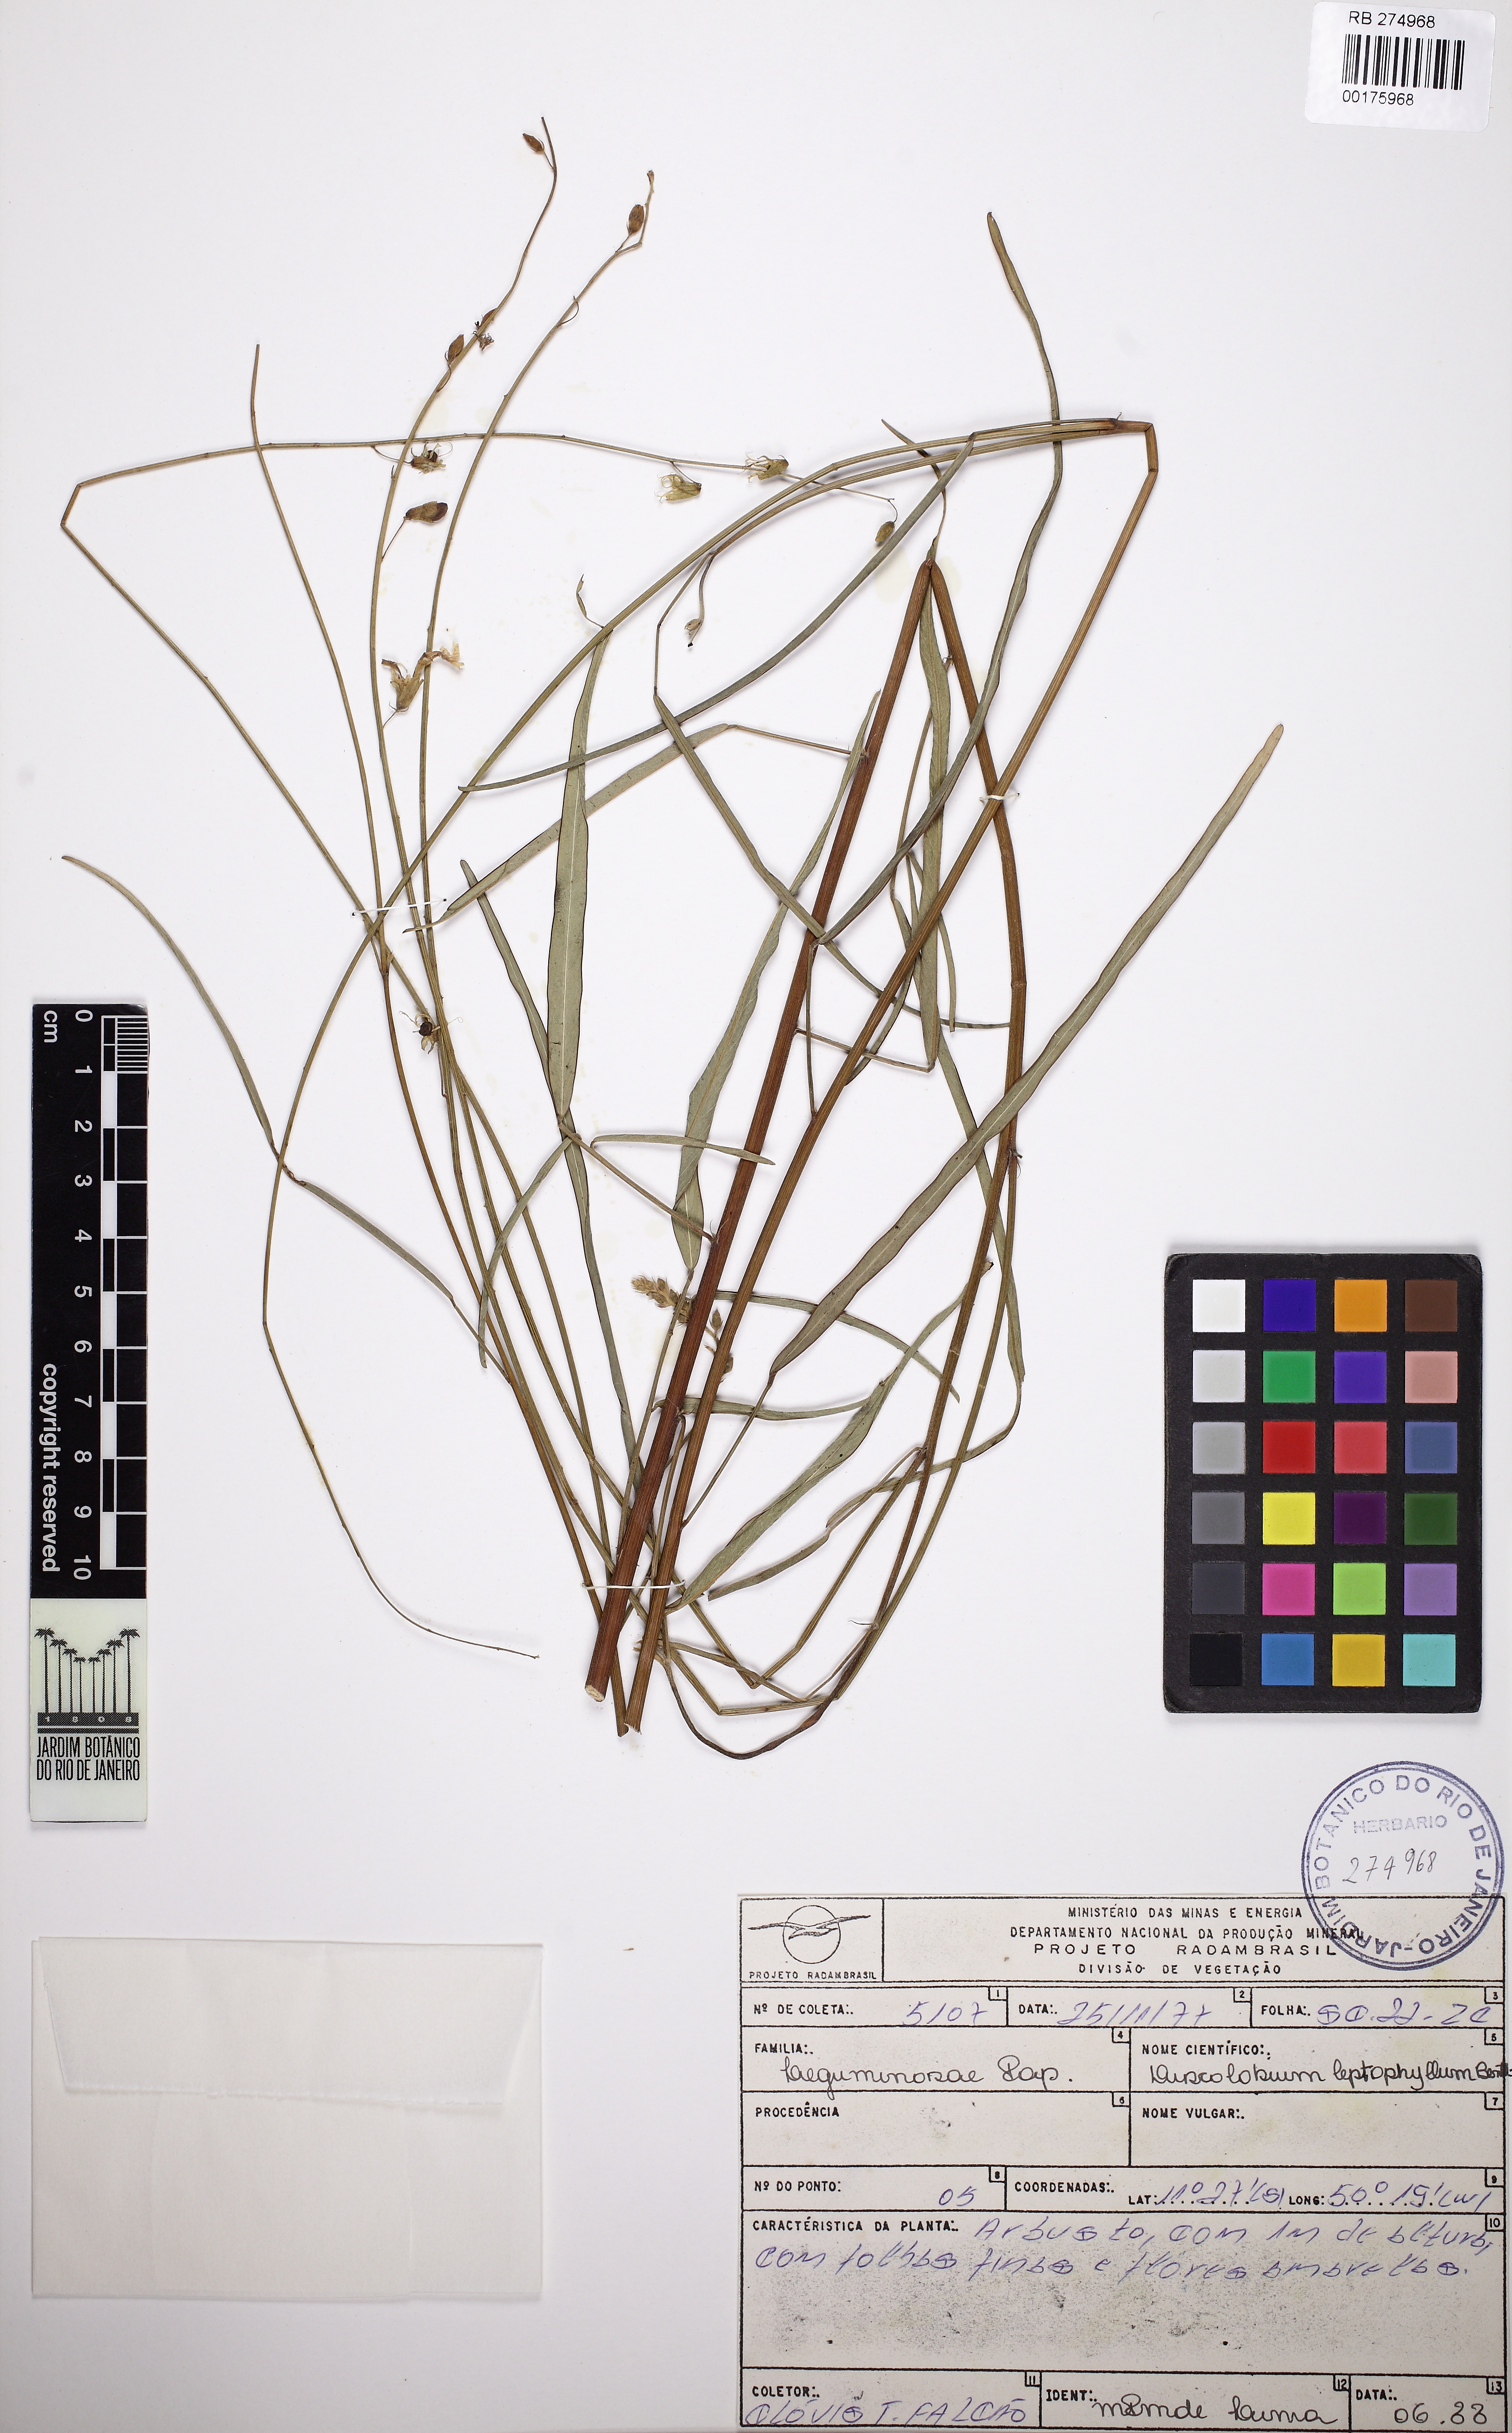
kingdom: Plantae
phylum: Tracheophyta
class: Magnoliopsida
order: Fabales
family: Fabaceae
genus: Discolobium
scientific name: Discolobium leptophyllum
